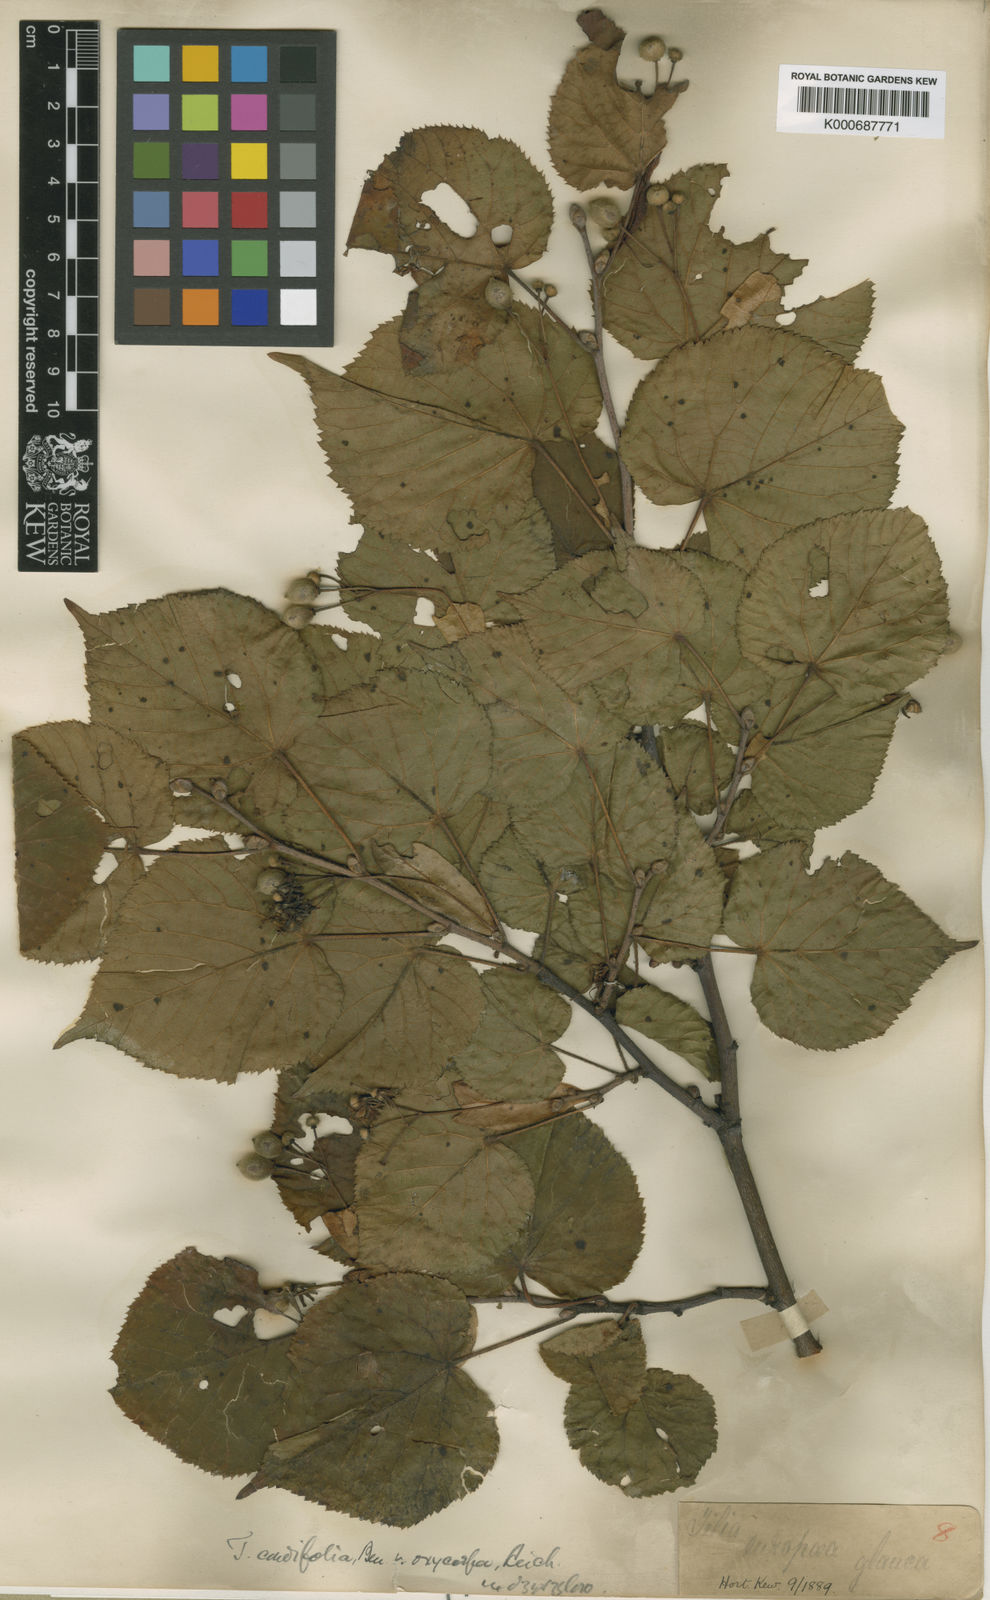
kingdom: Plantae
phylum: Tracheophyta
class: Magnoliopsida
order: Malvales
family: Malvaceae
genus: Tilia
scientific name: Tilia platyphyllos
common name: Large-leaved lime
